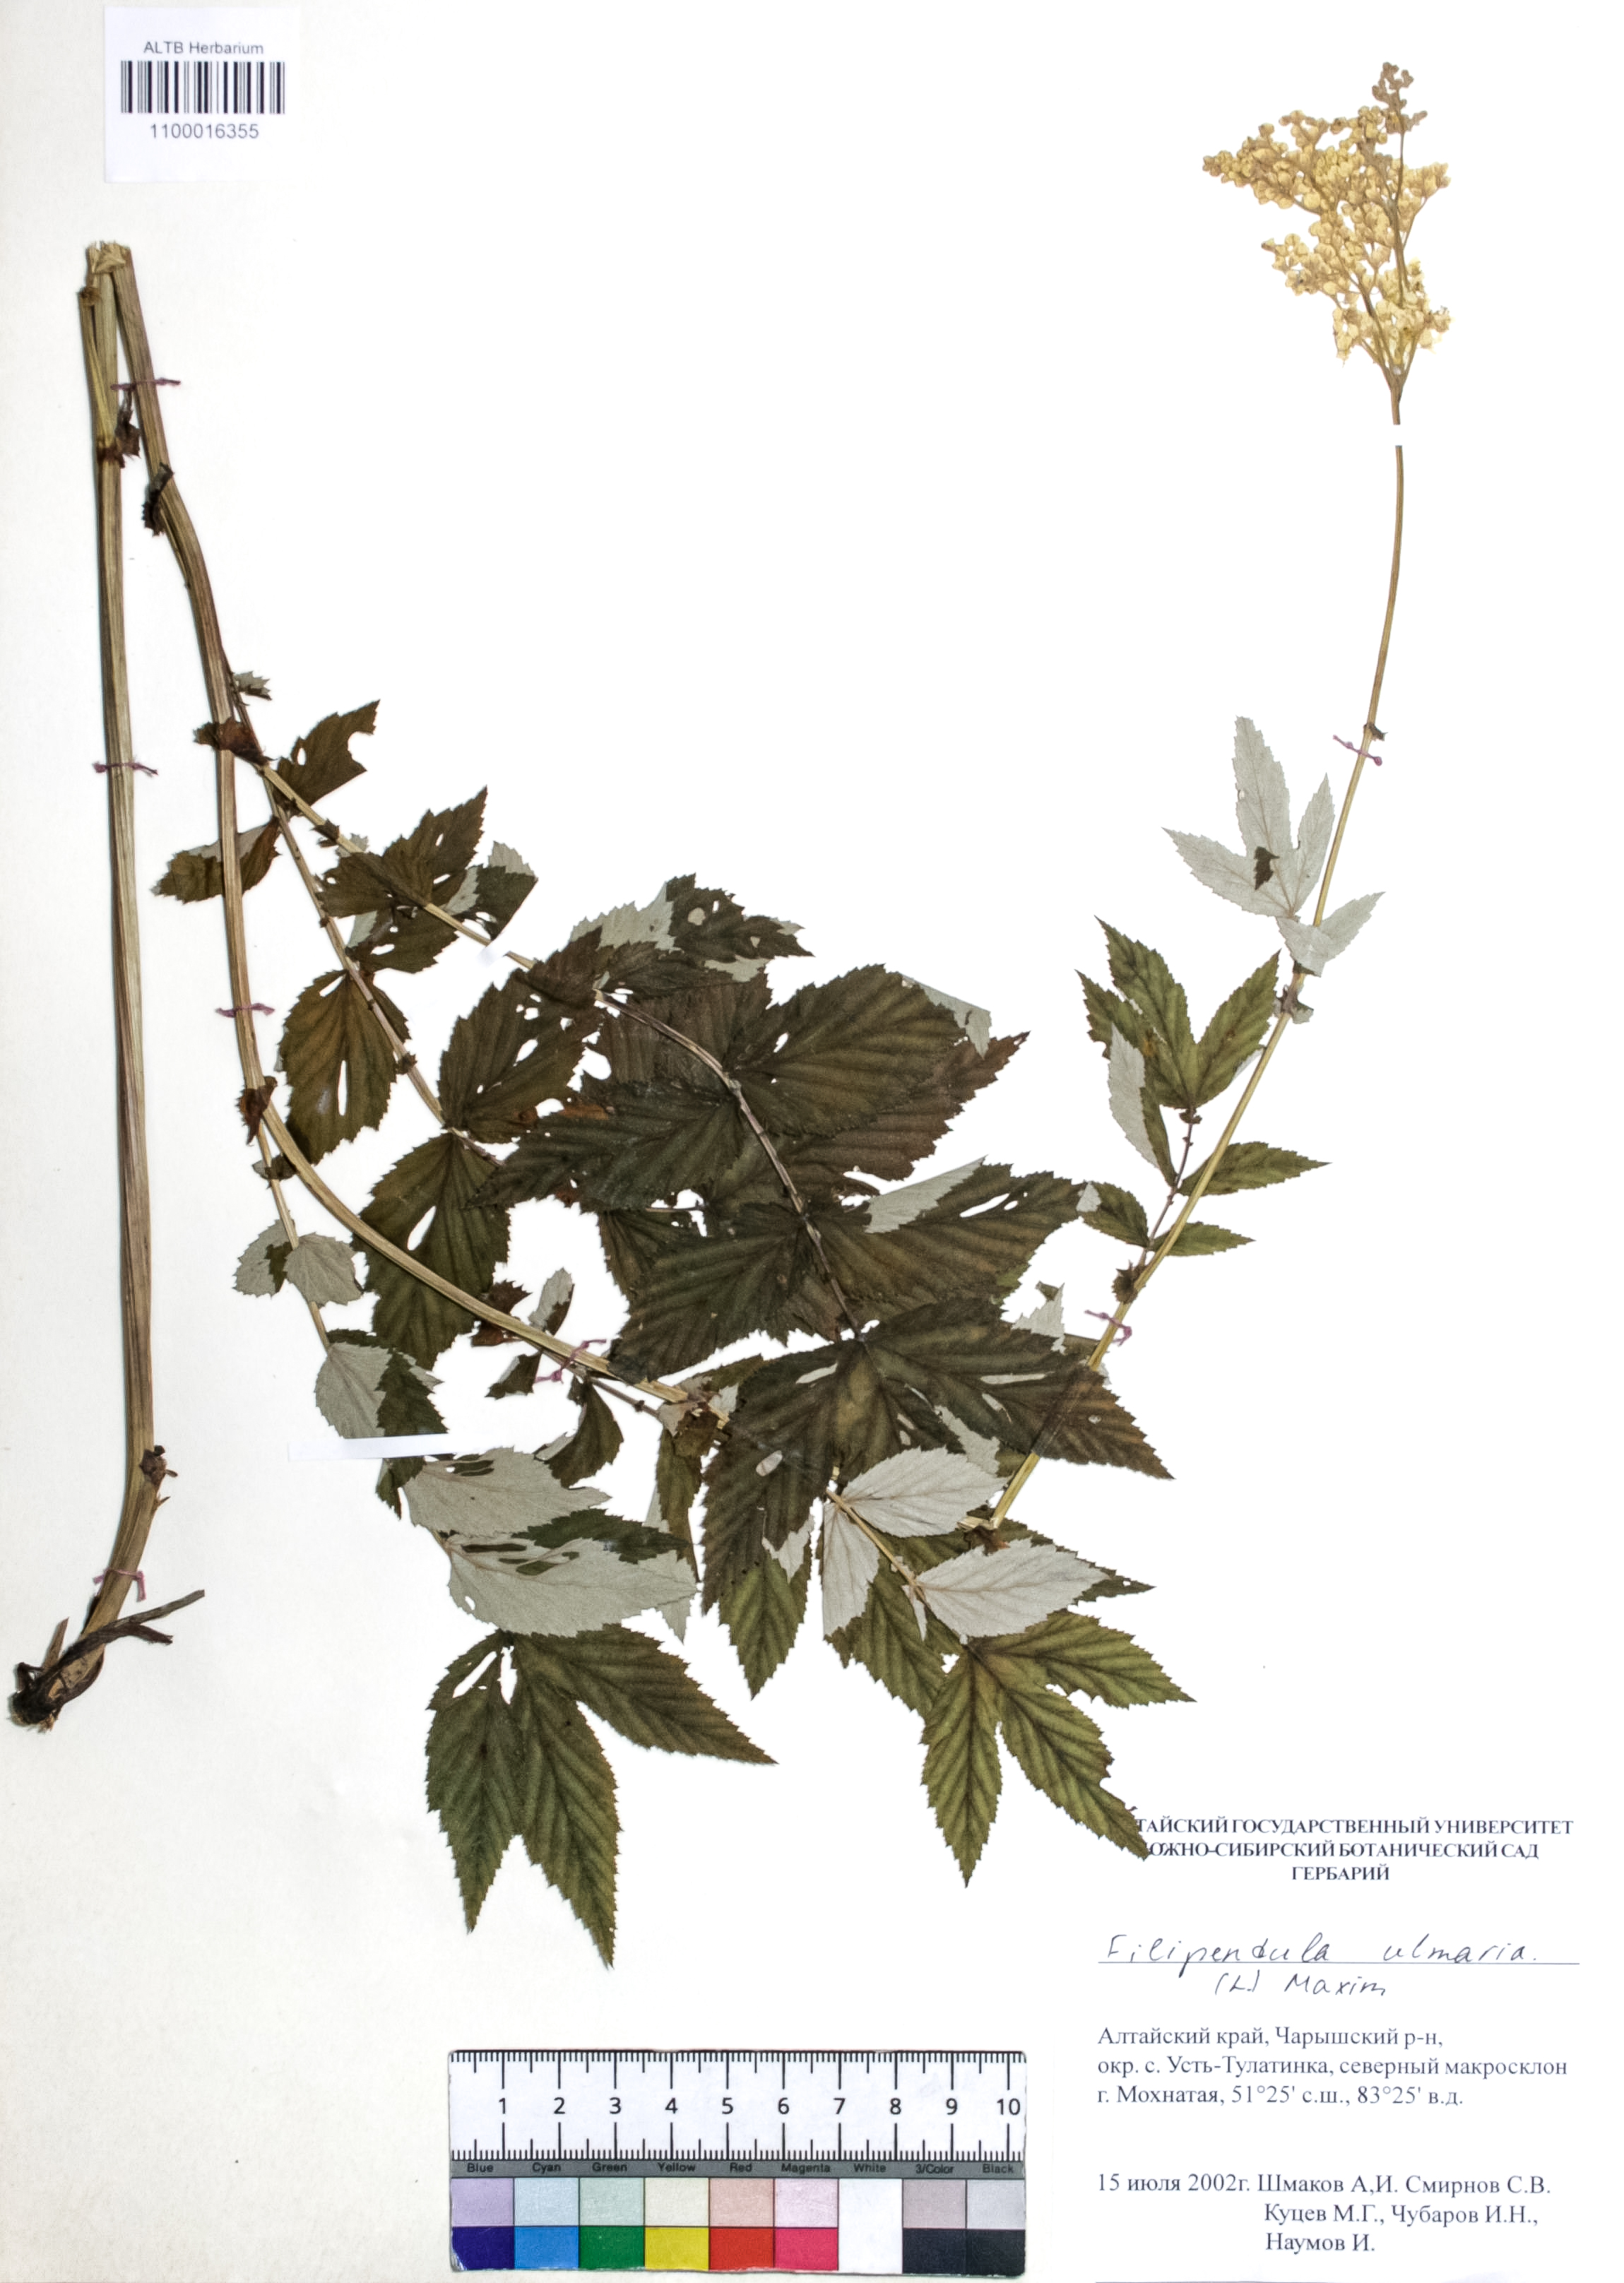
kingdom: Plantae
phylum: Tracheophyta
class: Magnoliopsida
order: Rosales
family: Rosaceae
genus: Filipendula
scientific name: Filipendula ulmaria
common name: Meadowsweet
